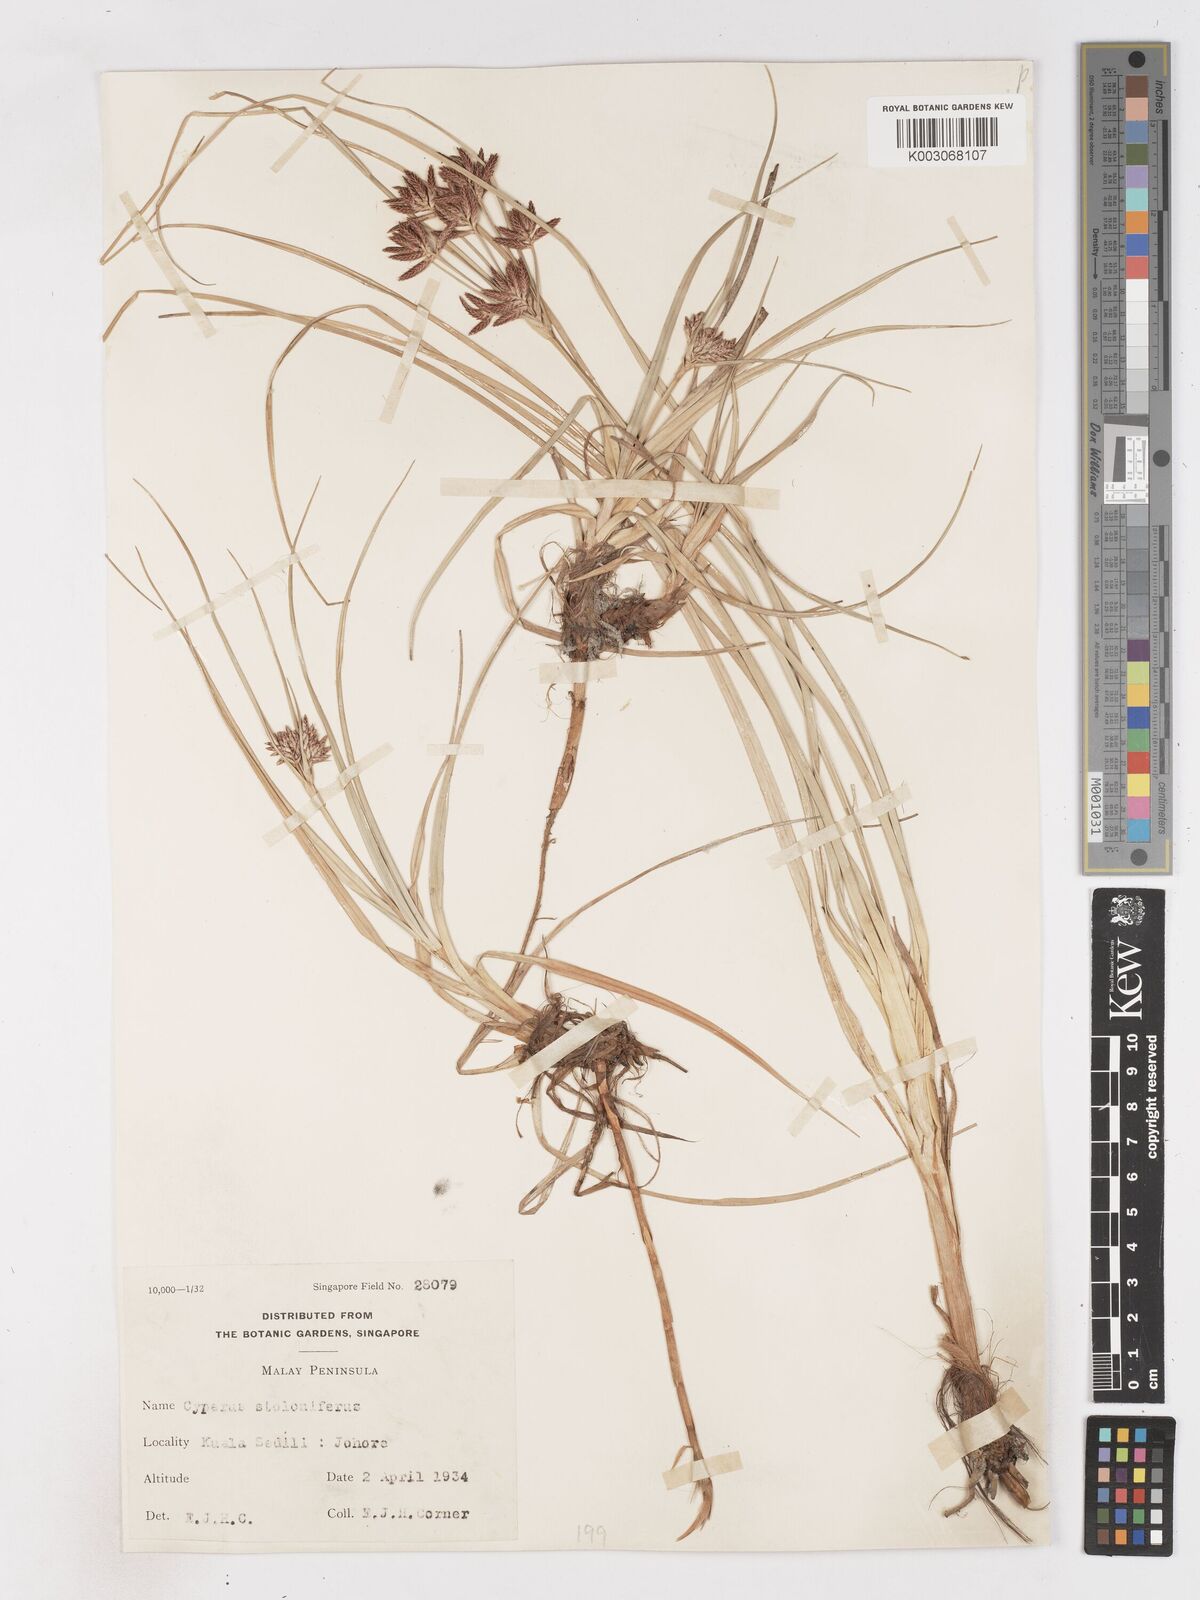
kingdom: Plantae
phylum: Tracheophyta
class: Liliopsida
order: Poales
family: Cyperaceae
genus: Cyperus
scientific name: Cyperus bulbosus
